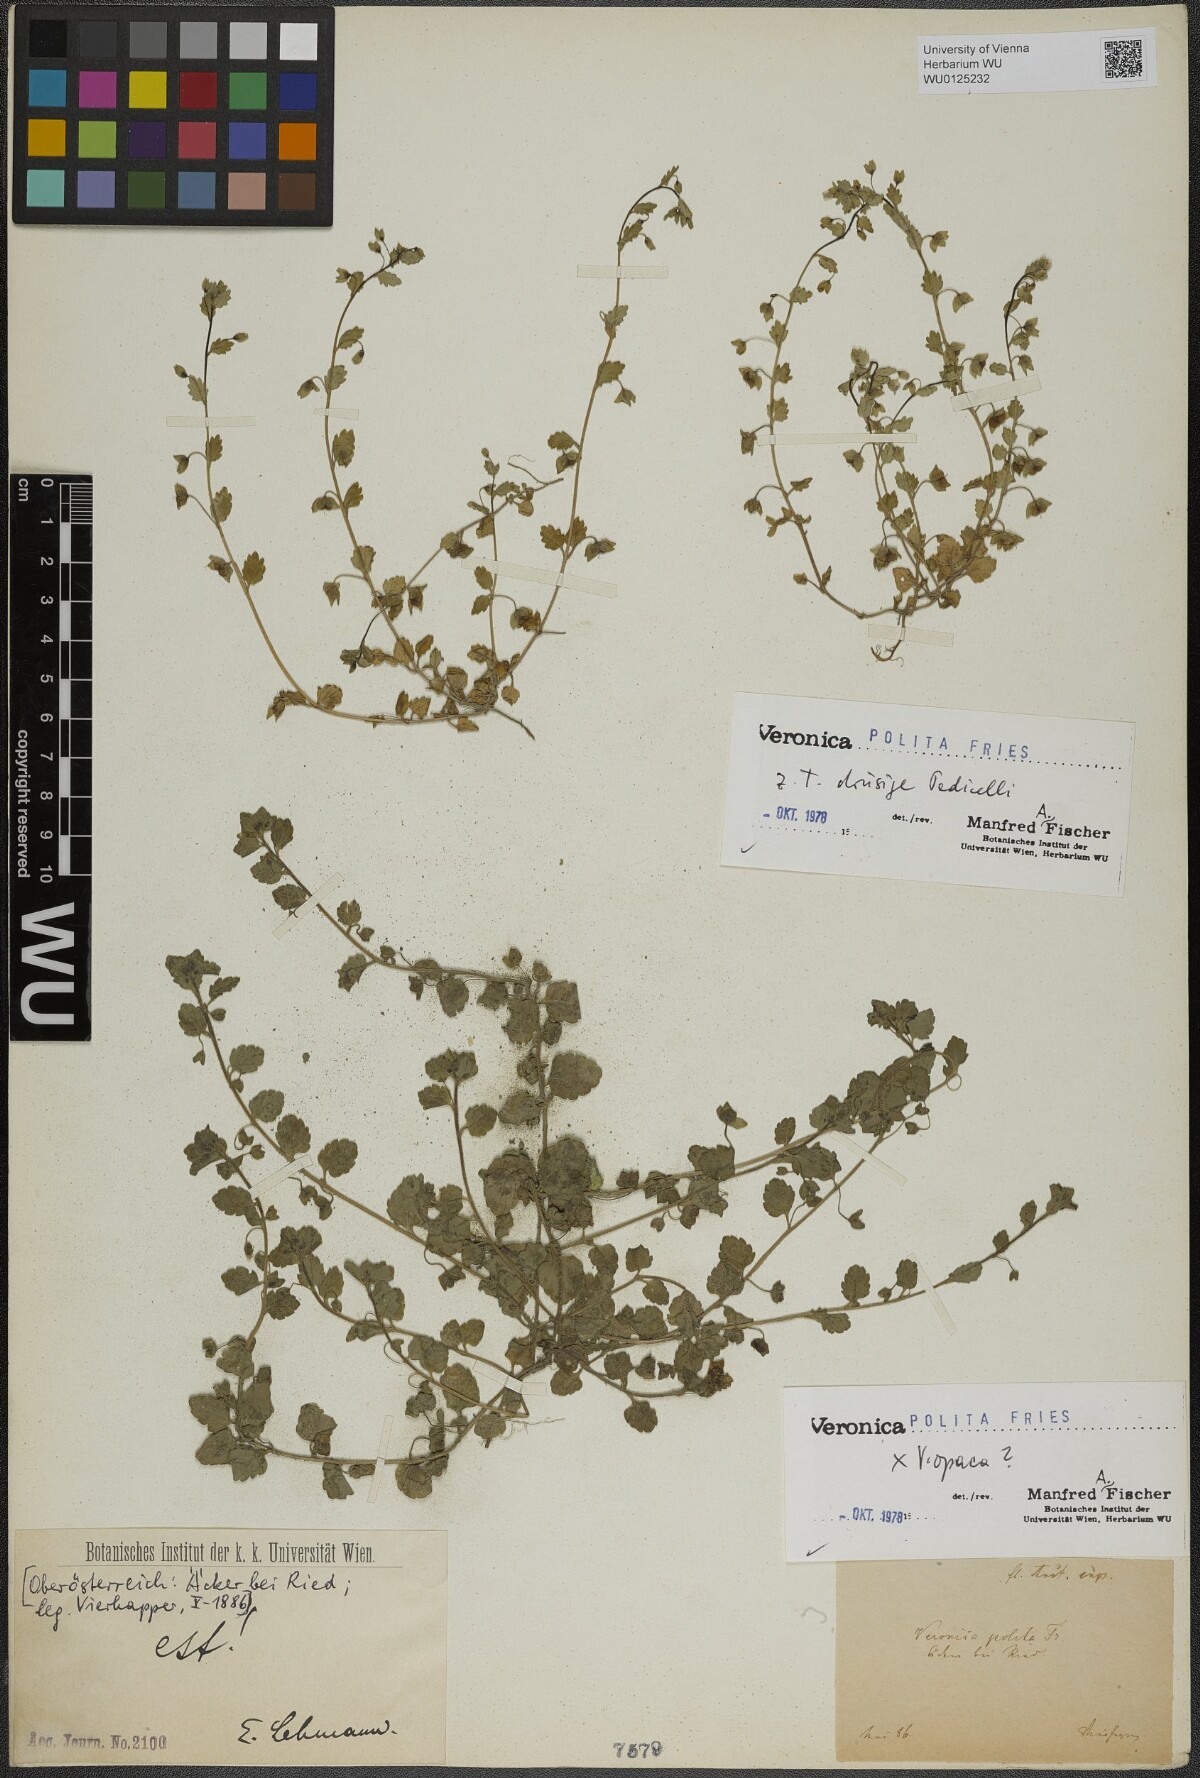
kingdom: Plantae
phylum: Tracheophyta
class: Magnoliopsida
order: Lamiales
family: Plantaginaceae
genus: Veronica
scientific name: Veronica polita
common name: Grey field-speedwell
